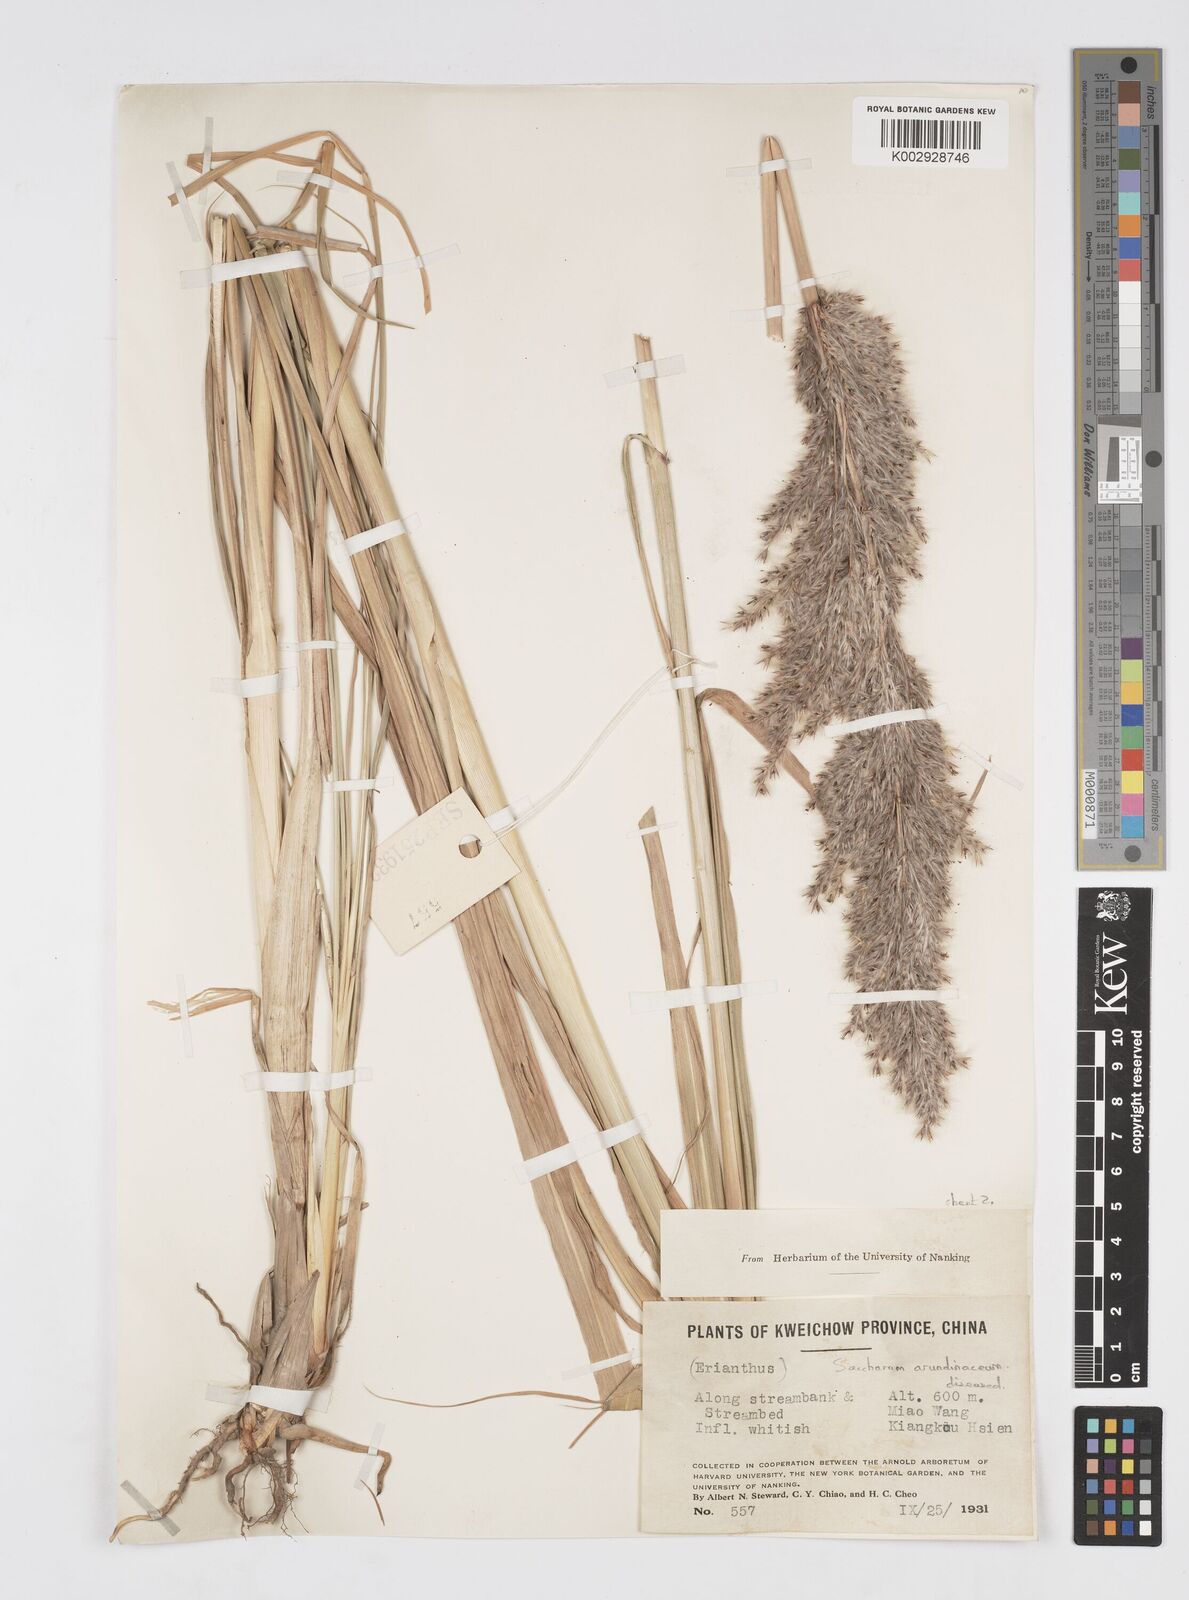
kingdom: Plantae
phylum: Tracheophyta
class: Liliopsida
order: Poales
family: Poaceae
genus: Tripidium
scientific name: Tripidium arundinaceum
